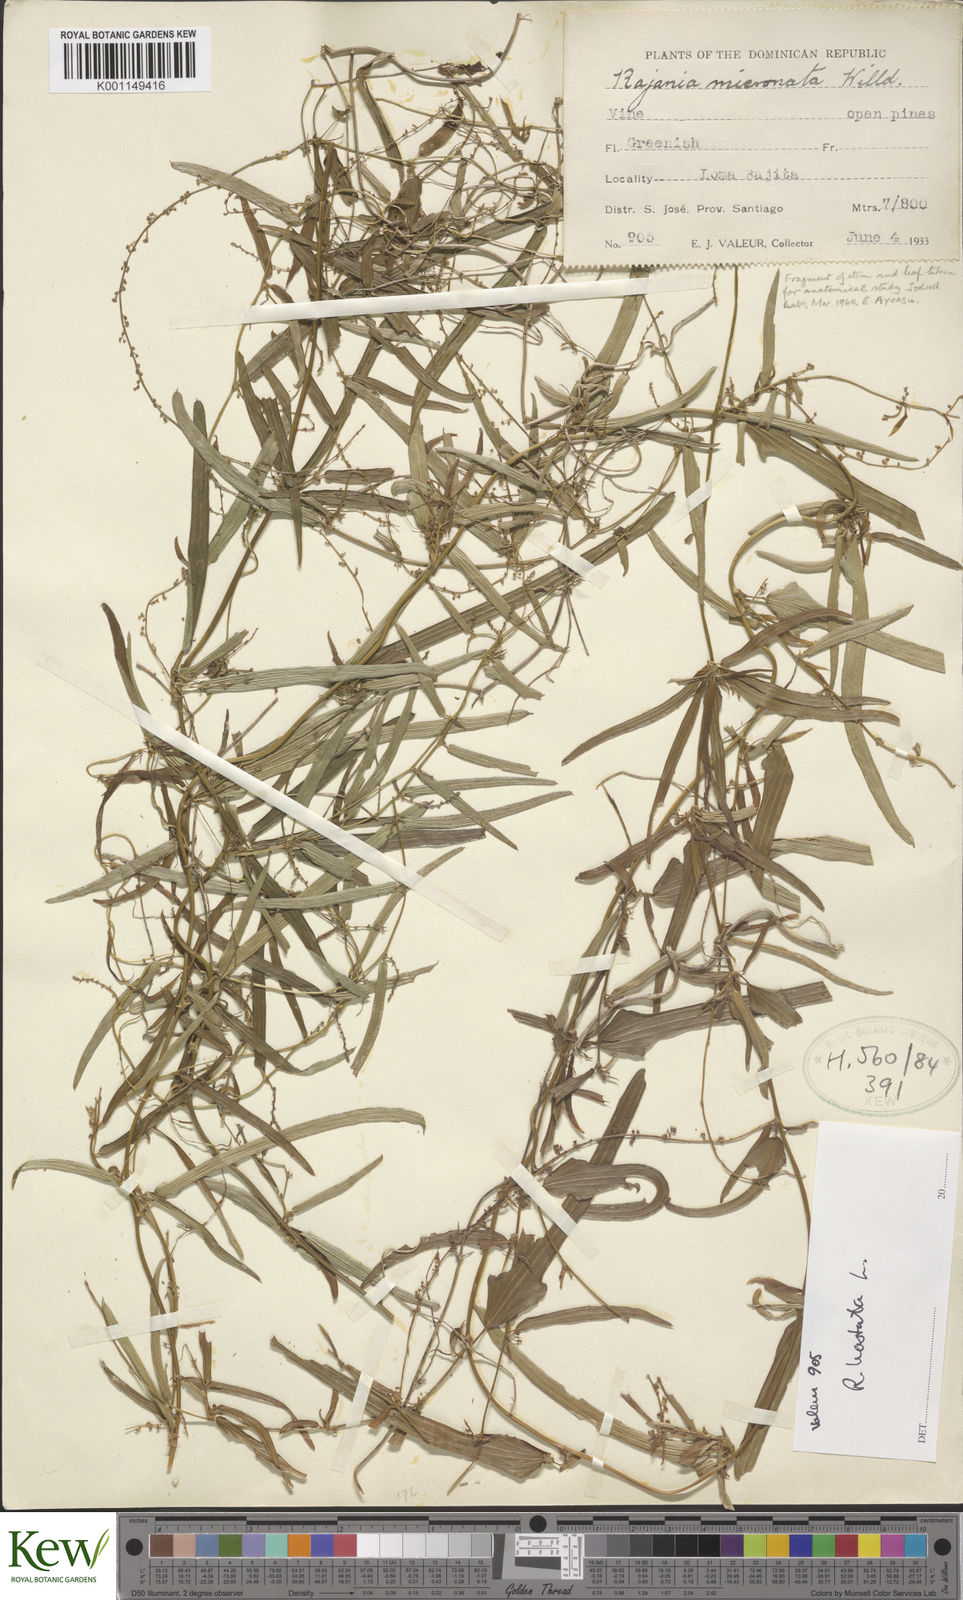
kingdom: Plantae
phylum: Tracheophyta
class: Liliopsida
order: Dioscoreales
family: Dioscoreaceae
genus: Dioscorea
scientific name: Dioscorea
